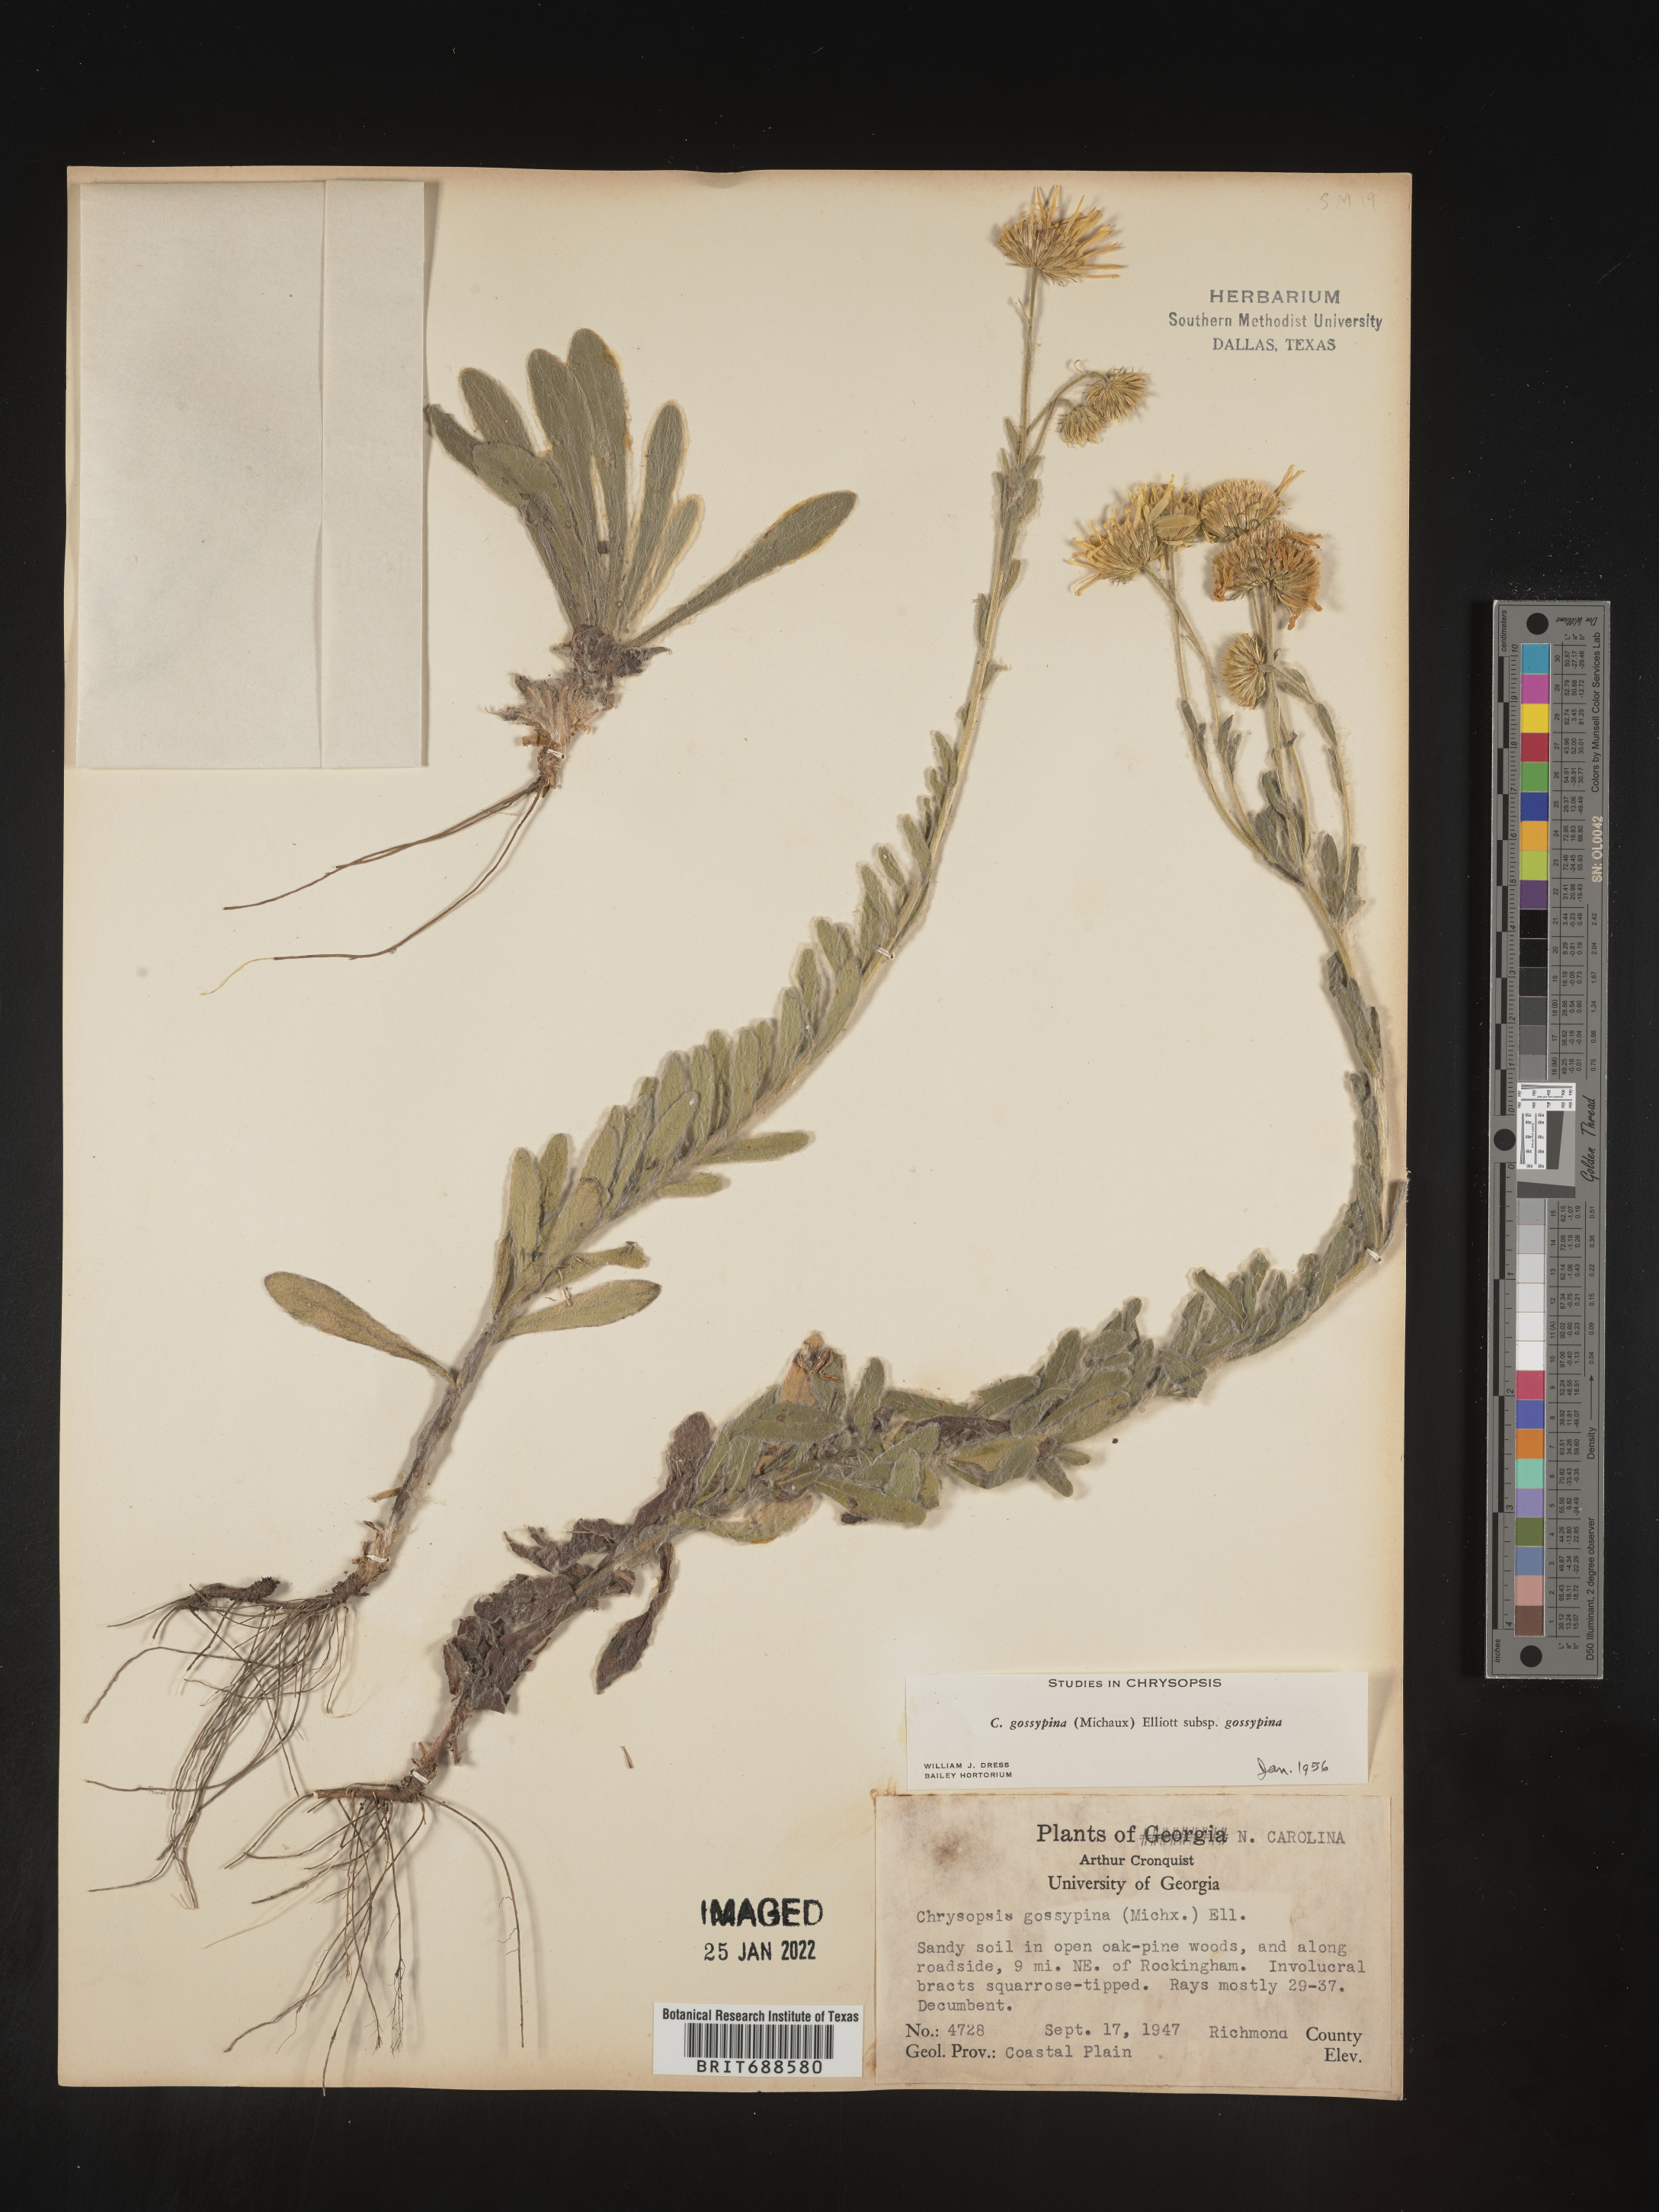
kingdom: Plantae
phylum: Tracheophyta
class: Magnoliopsida
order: Asterales
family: Asteraceae
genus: Chrysopsis
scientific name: Chrysopsis gossypina
